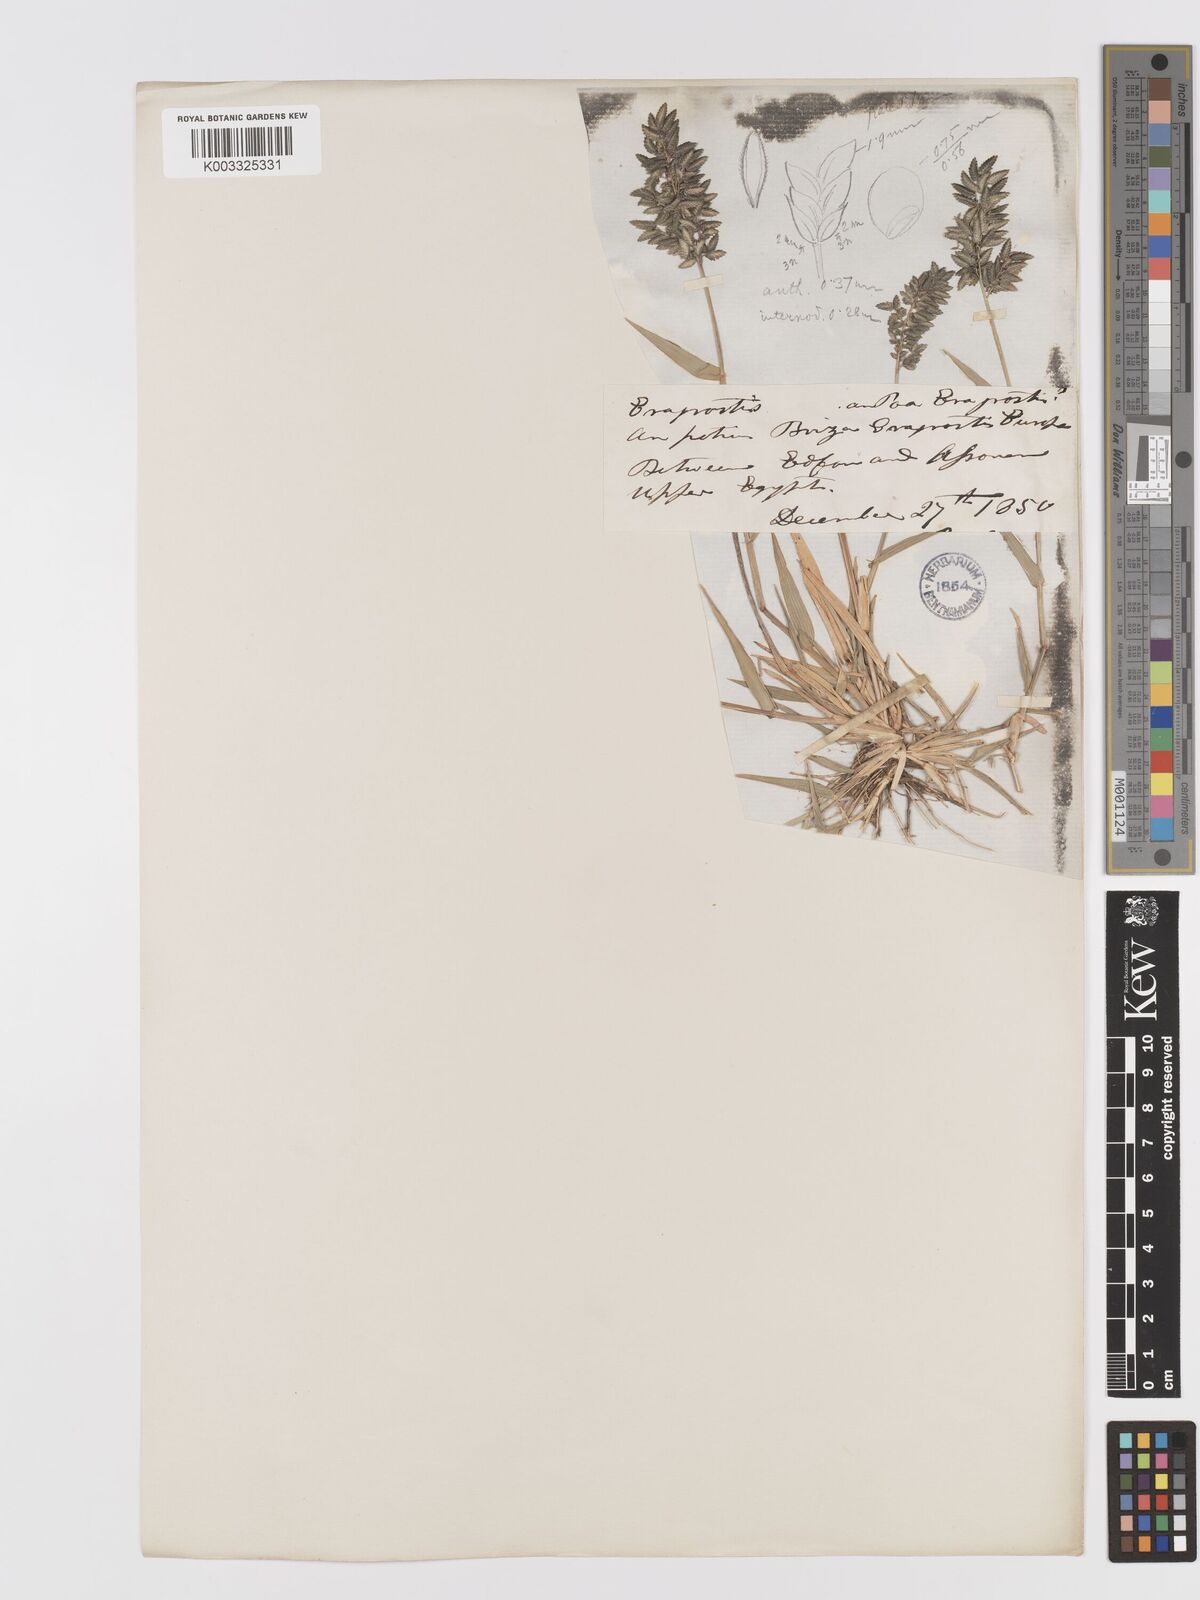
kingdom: Plantae
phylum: Tracheophyta
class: Liliopsida
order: Poales
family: Poaceae
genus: Eragrostis
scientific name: Eragrostis cilianensis
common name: Stinkgrass
